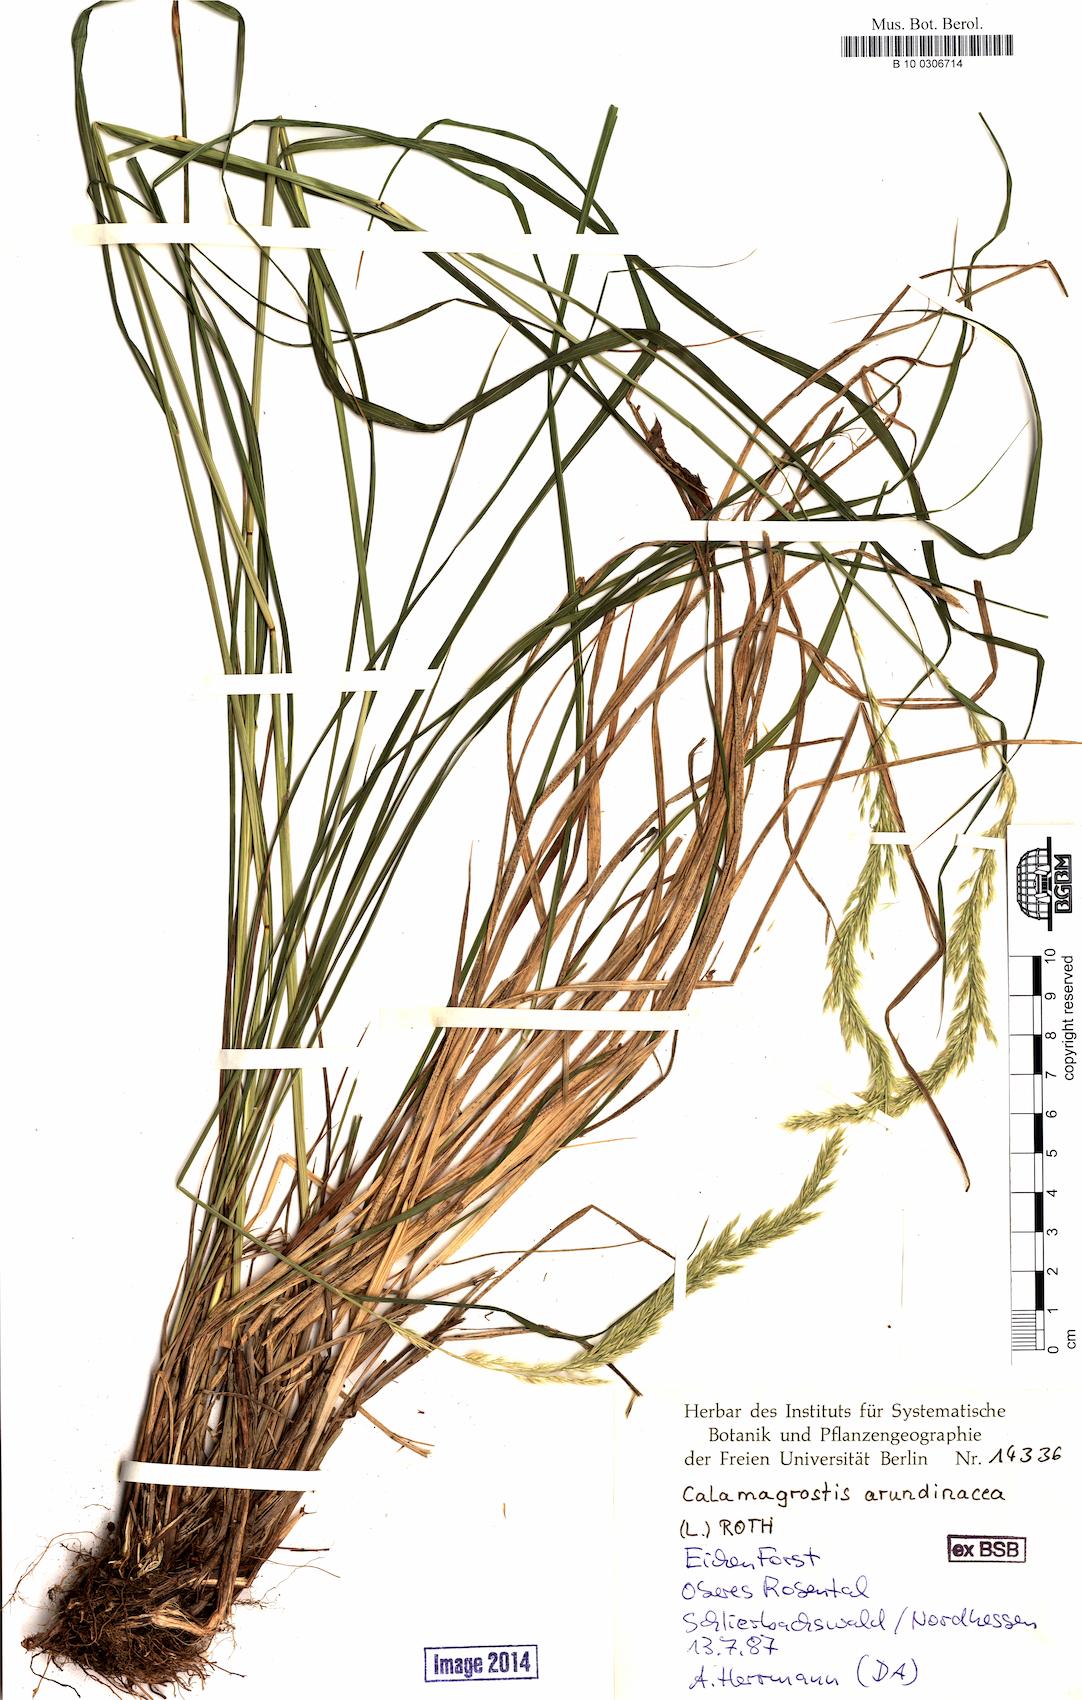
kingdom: Plantae
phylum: Tracheophyta
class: Liliopsida
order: Poales
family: Poaceae
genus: Calamagrostis
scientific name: Calamagrostis arundinacea
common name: Metskastik
